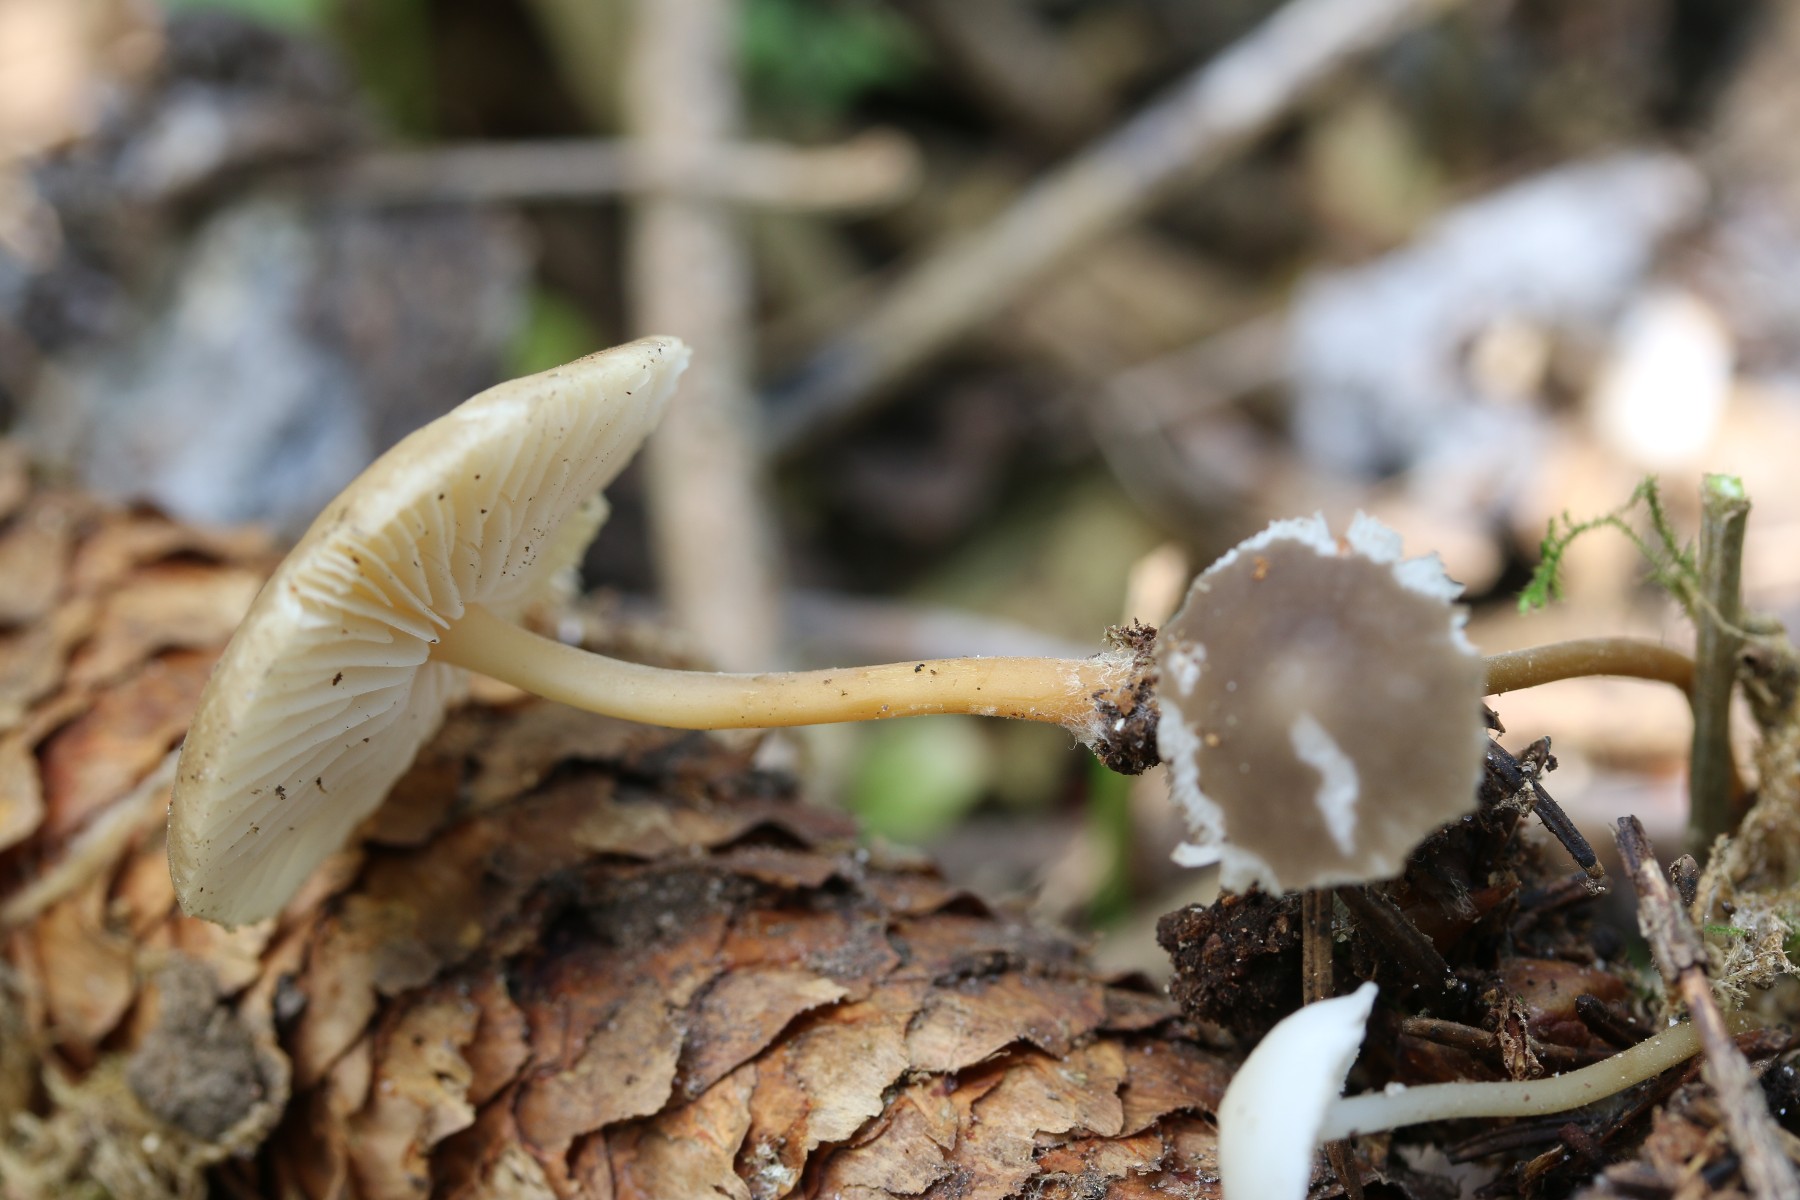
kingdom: Fungi
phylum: Basidiomycota
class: Agaricomycetes
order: Agaricales
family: Physalacriaceae
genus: Strobilurus
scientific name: Strobilurus esculentus
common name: gran-koglehat
